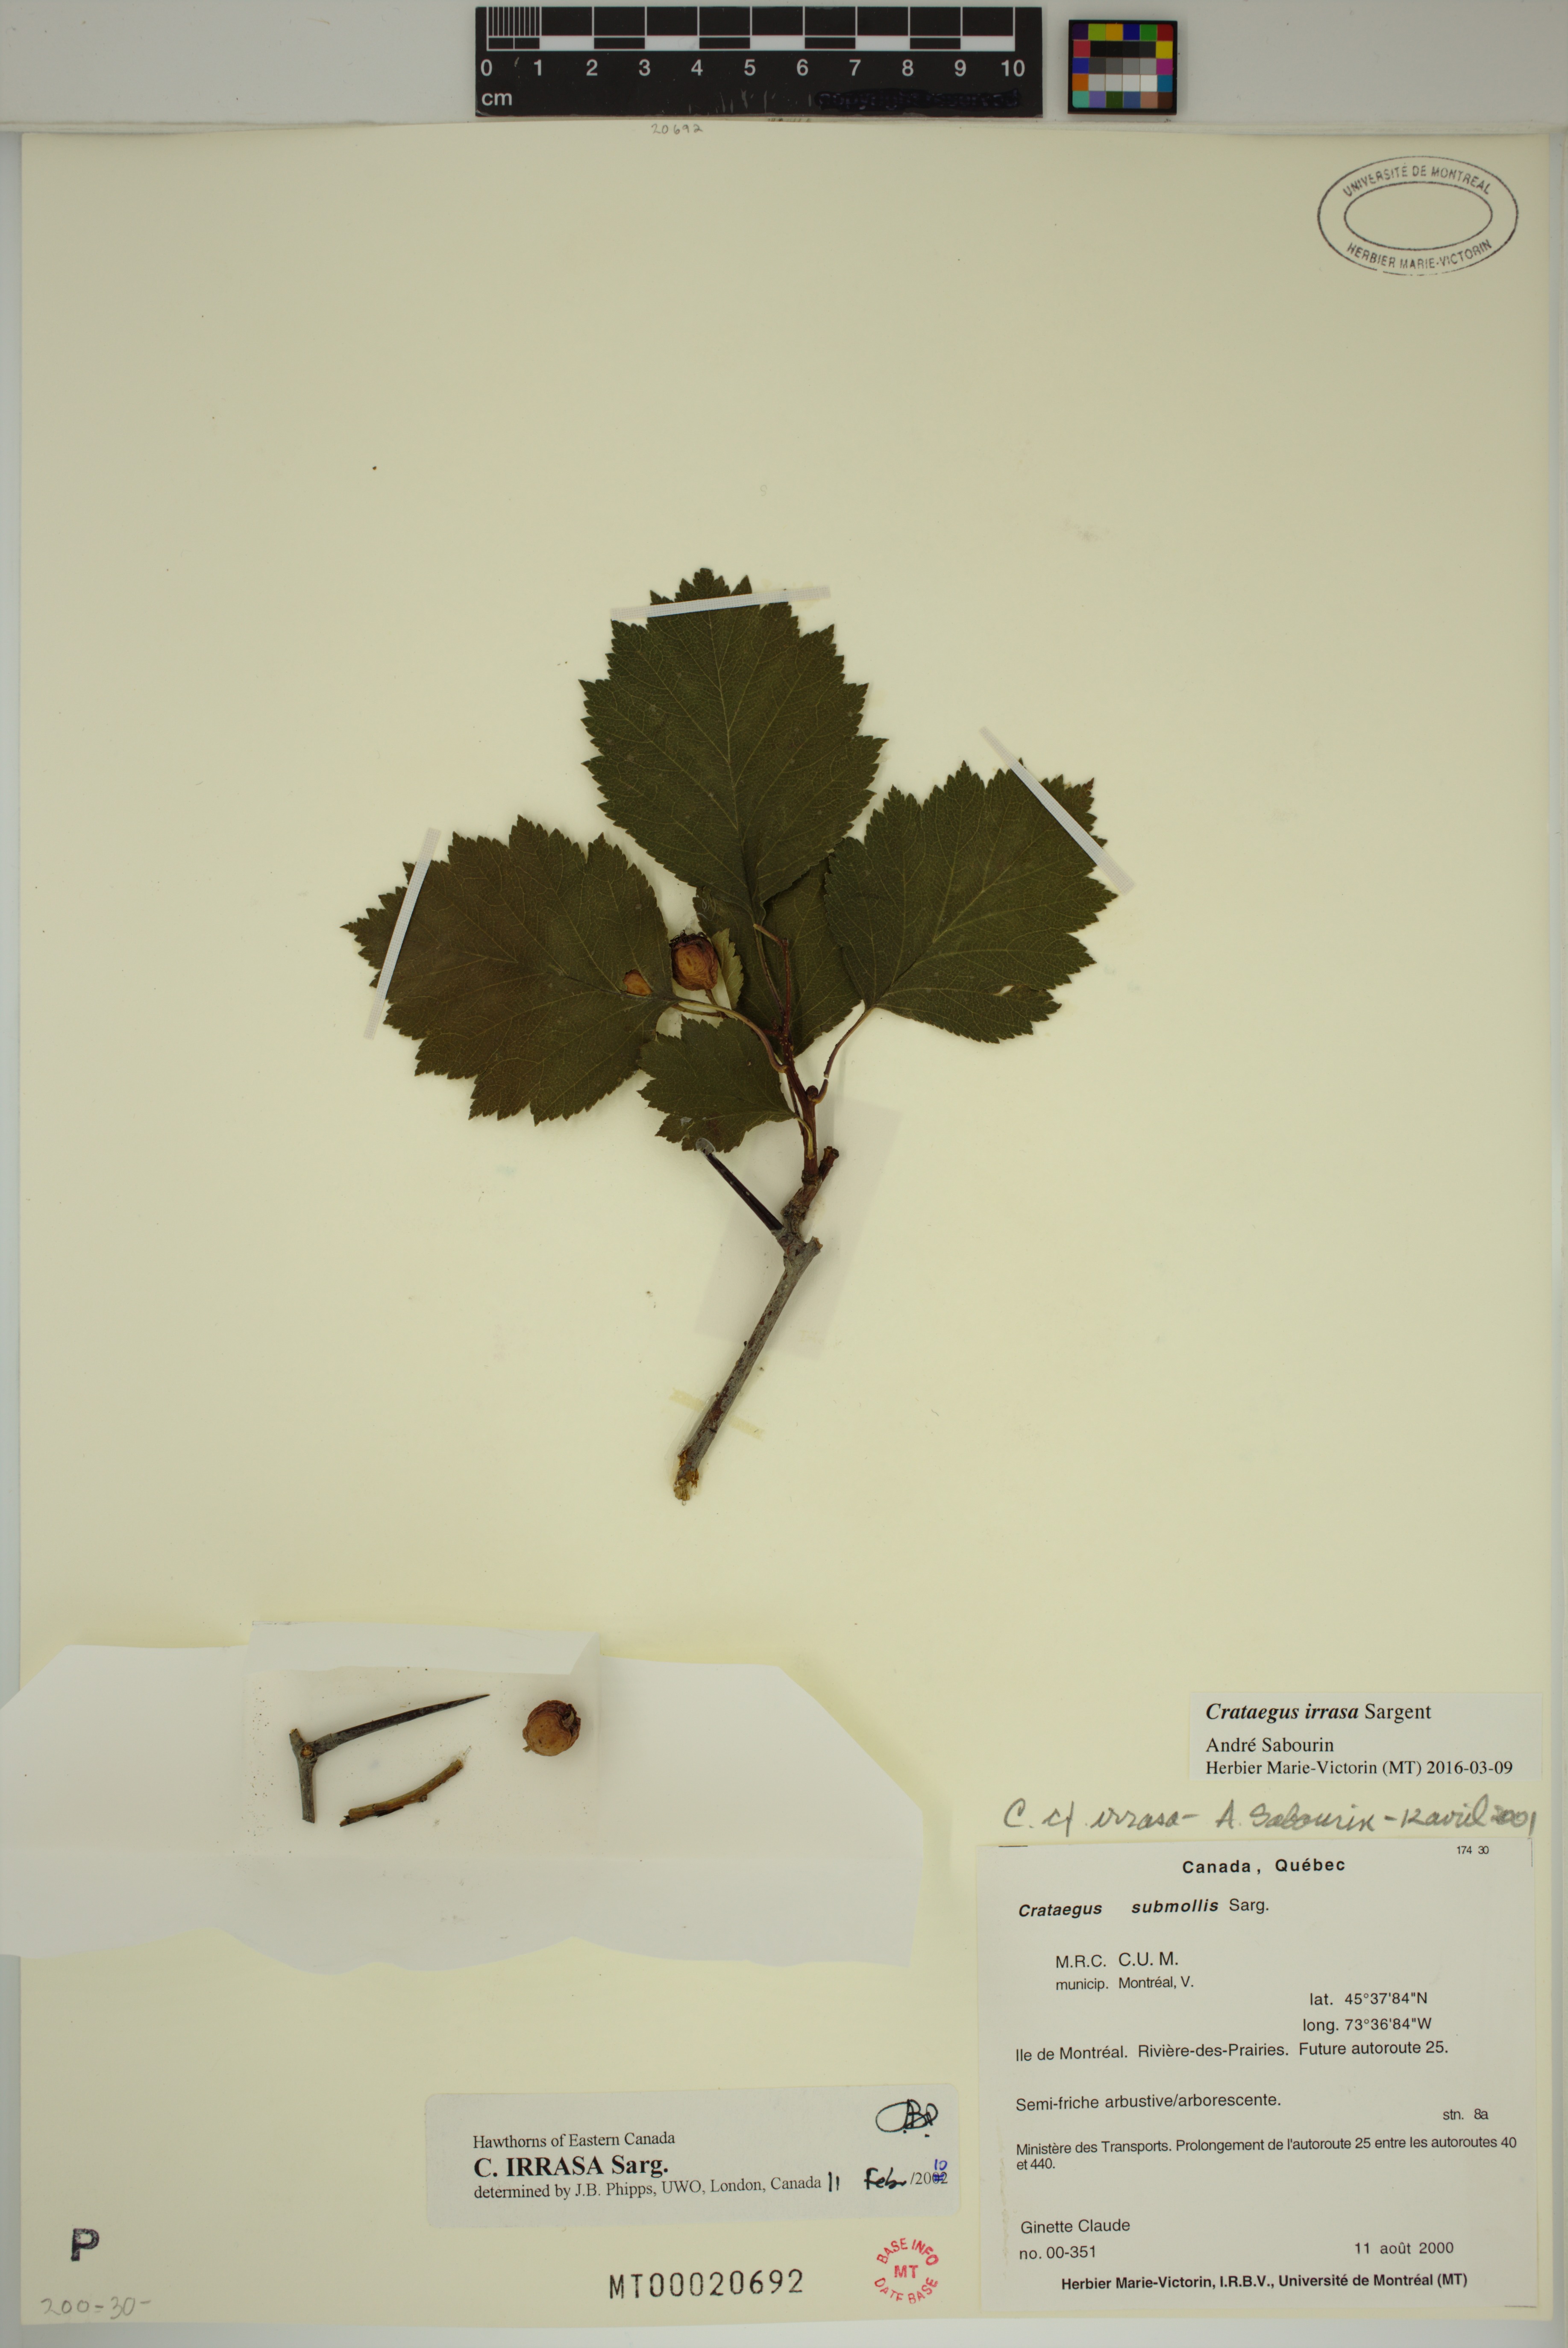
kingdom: Plantae
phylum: Tracheophyta
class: Magnoliopsida
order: Rosales
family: Rosaceae
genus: Crataegus
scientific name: Crataegus irrasa
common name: Unshorn hawthorn
